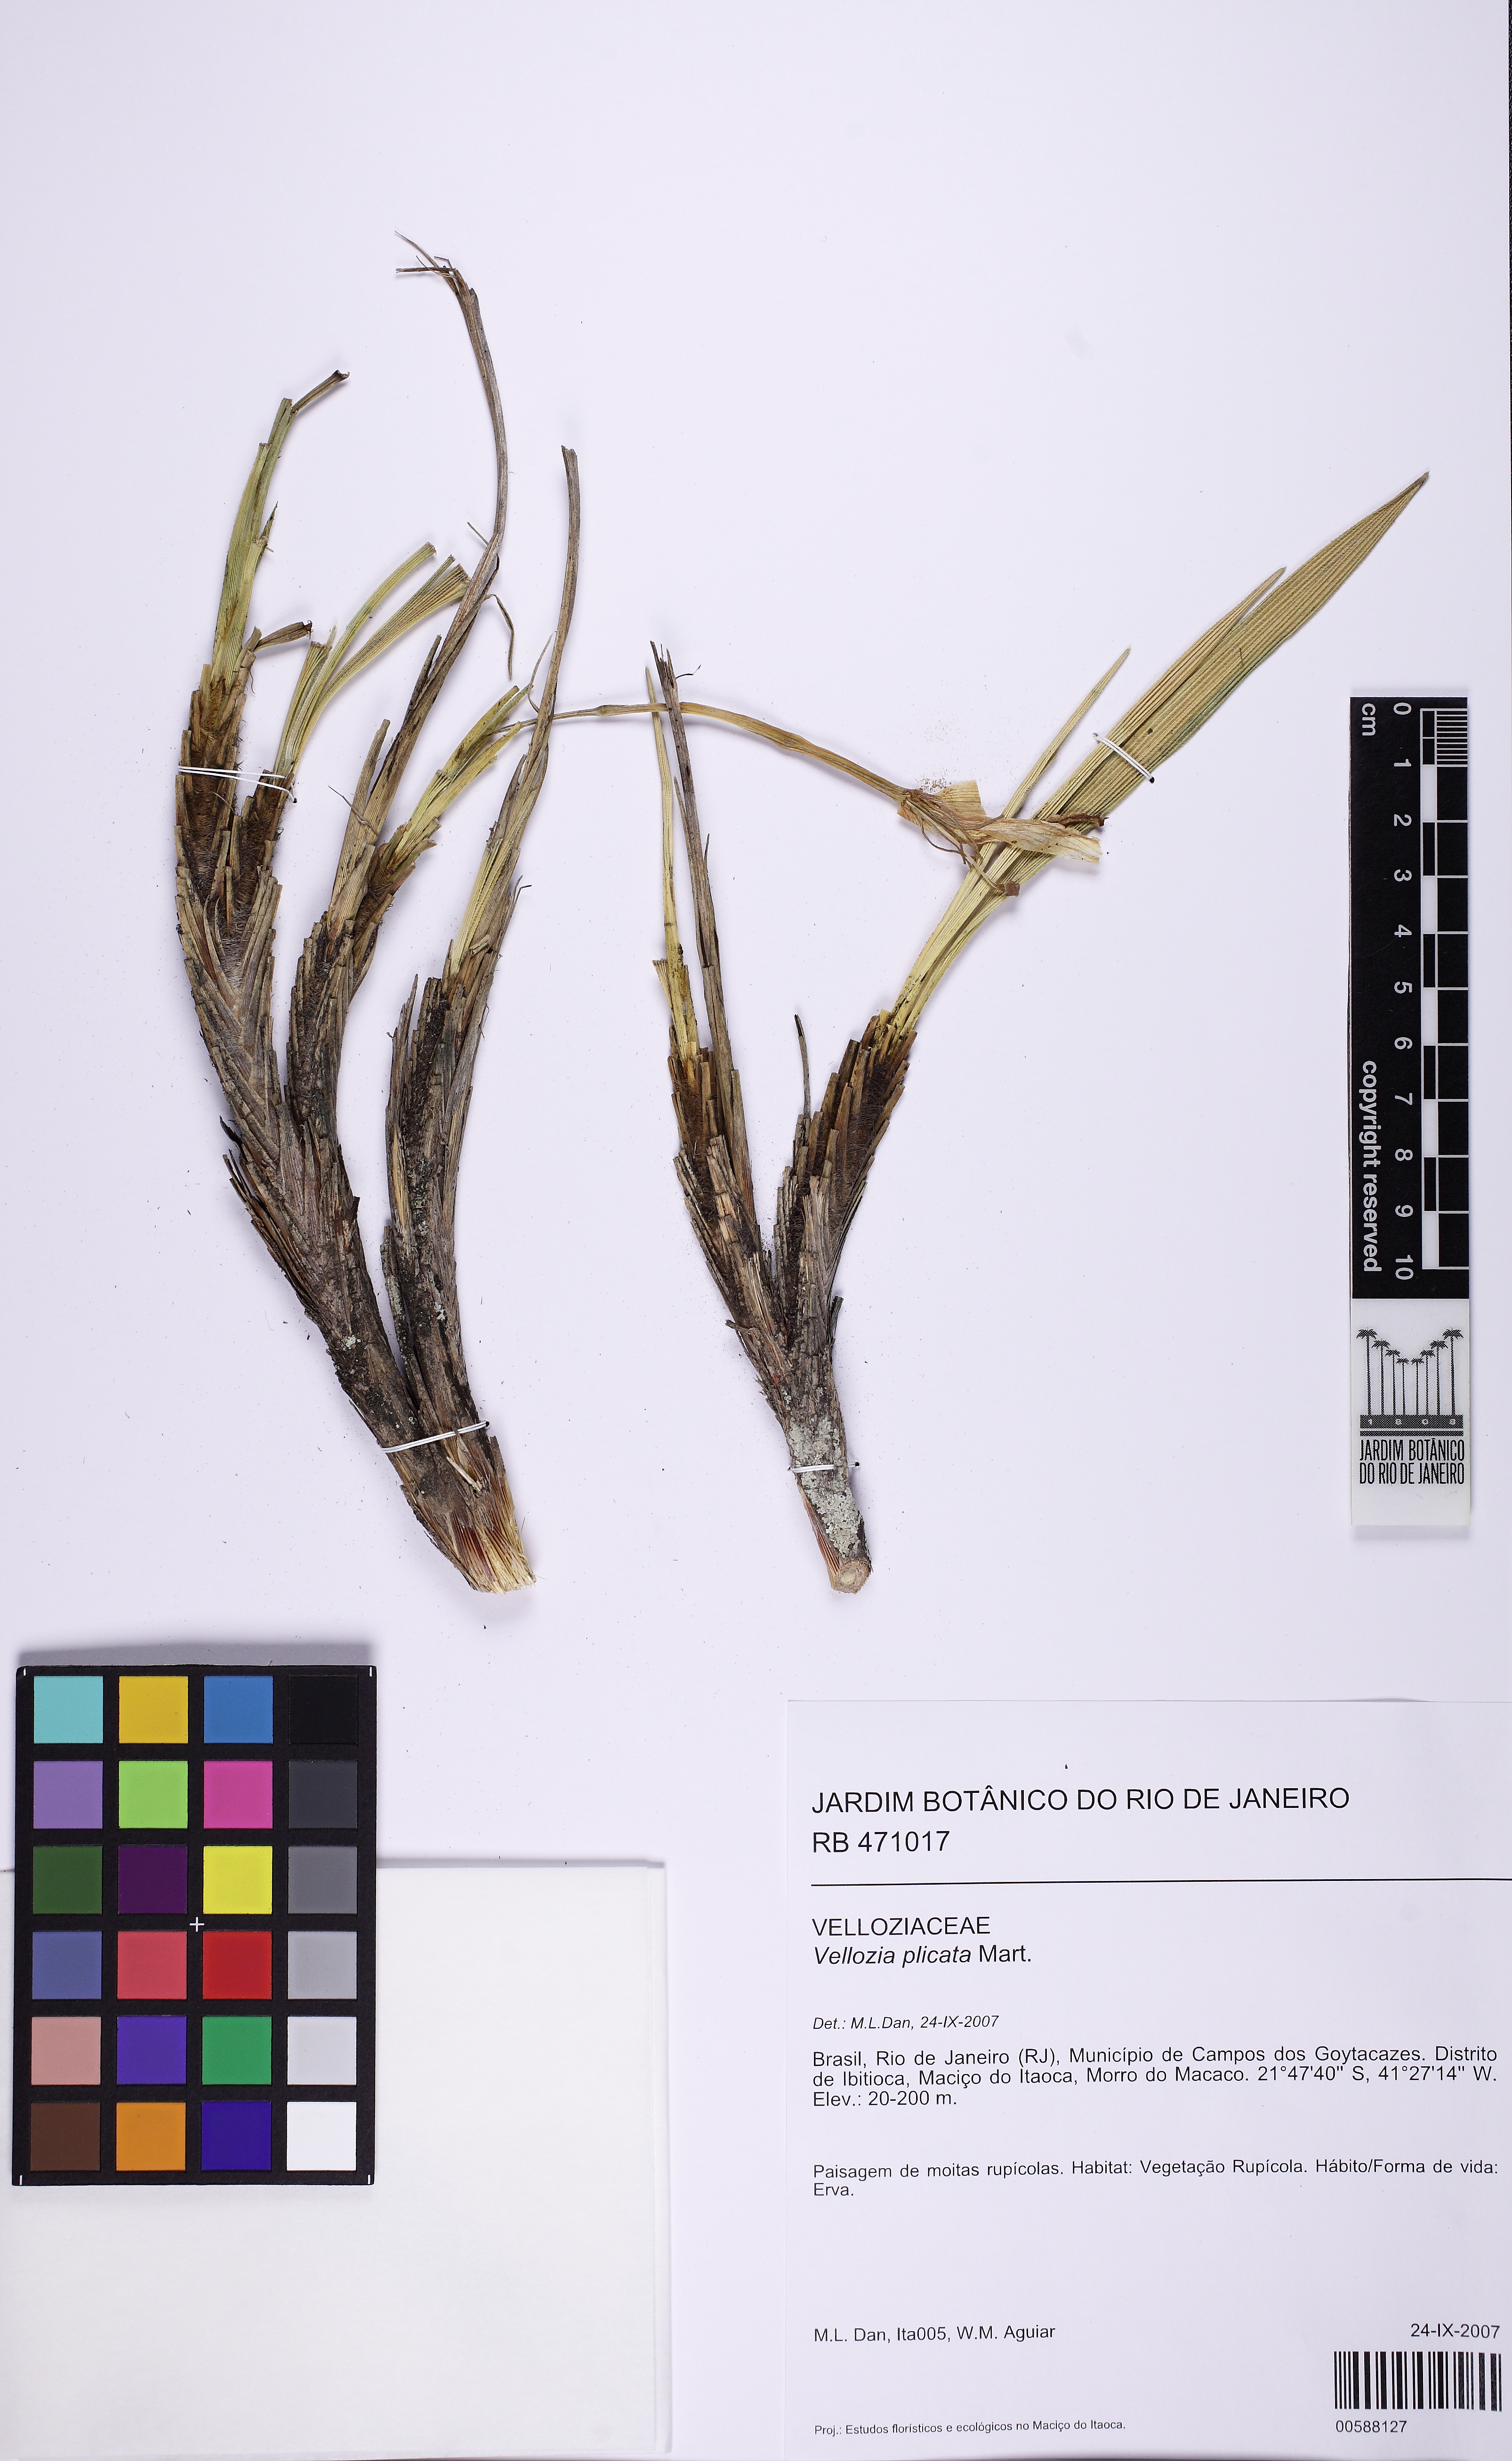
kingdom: Plantae
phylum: Tracheophyta
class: Liliopsida
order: Pandanales
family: Velloziaceae
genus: Nanuza
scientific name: Nanuza plicata
